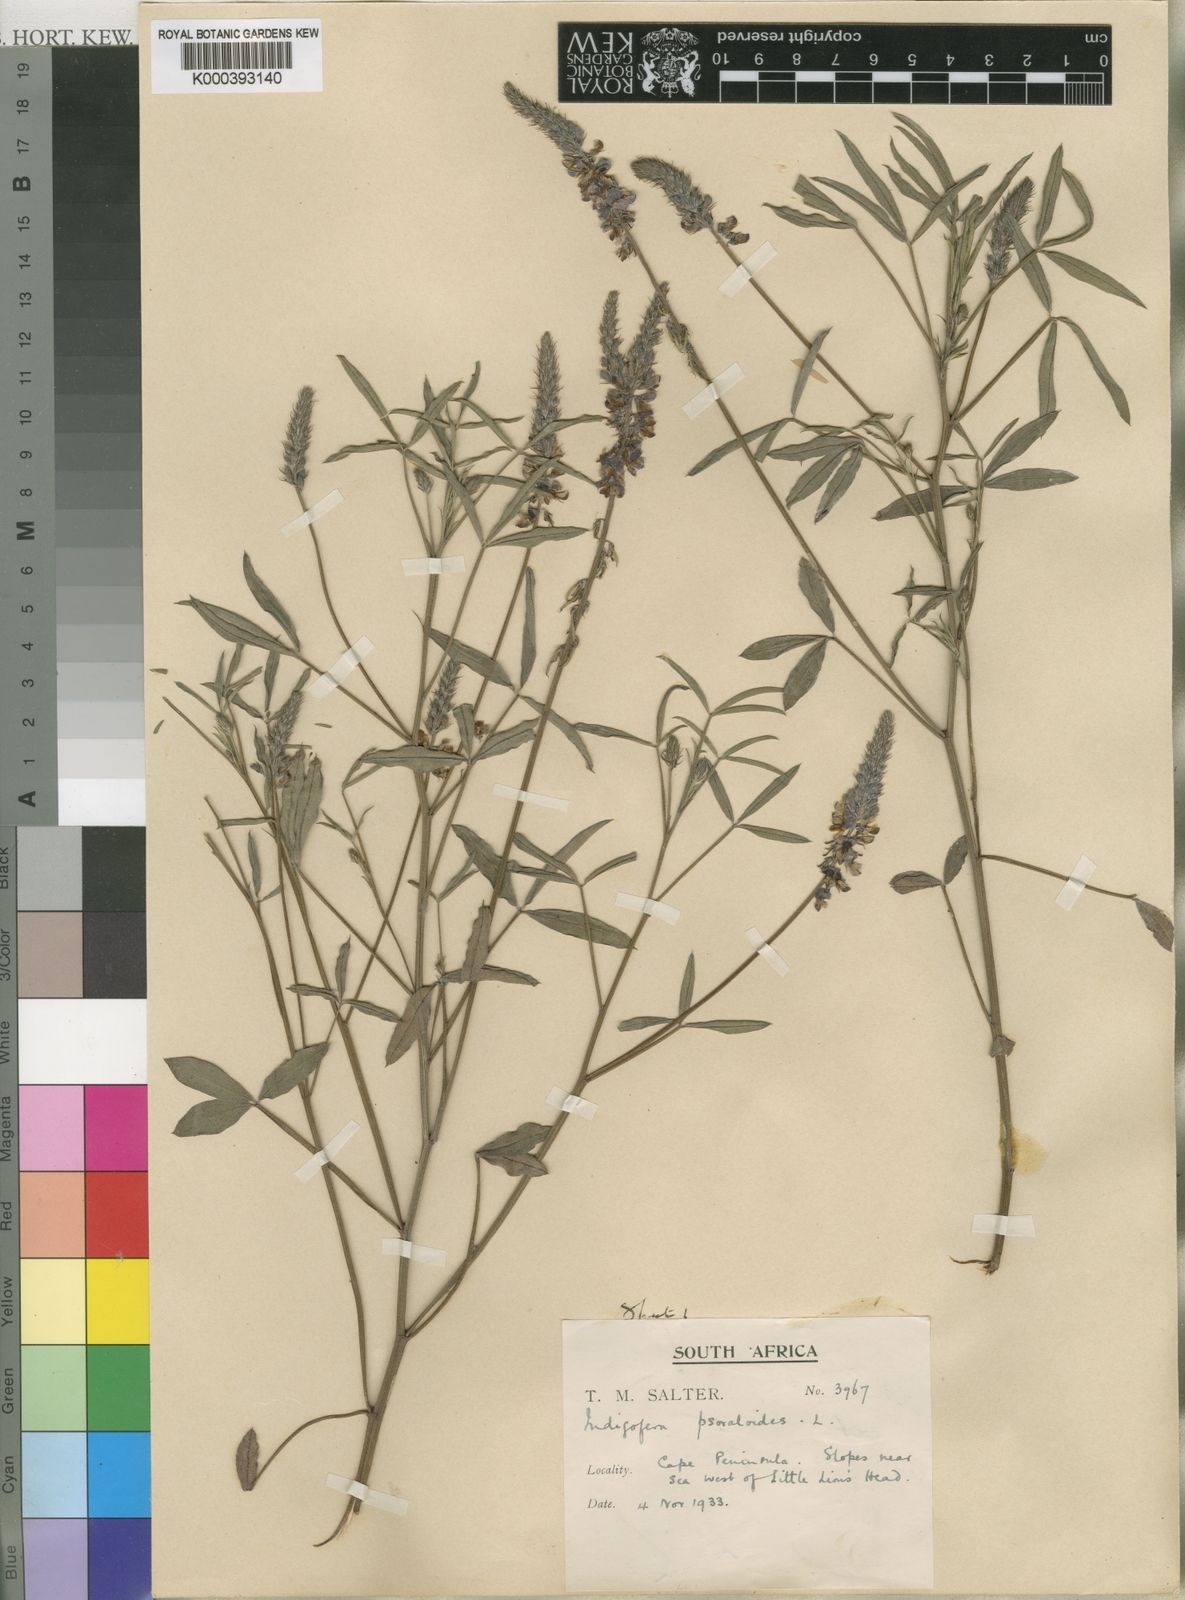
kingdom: Plantae
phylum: Tracheophyta
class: Magnoliopsida
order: Fabales
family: Fabaceae
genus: Indigofera
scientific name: Indigofera psoraloides
